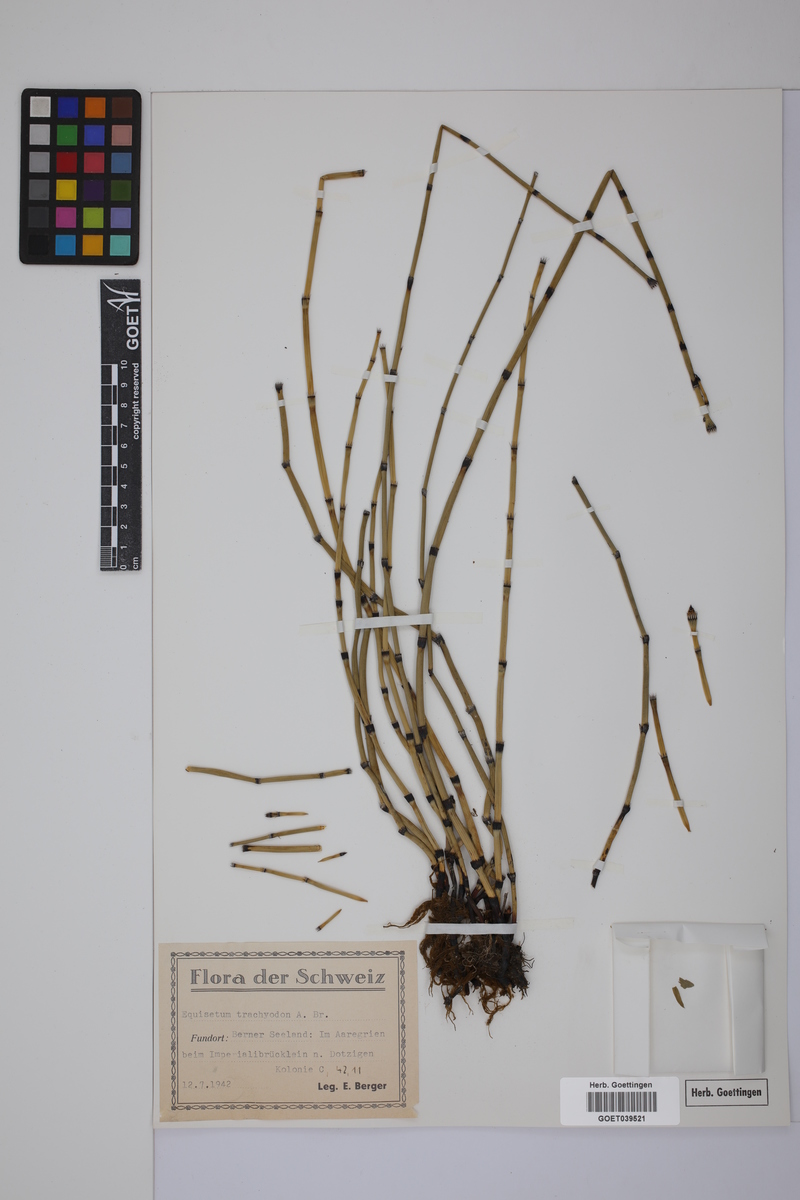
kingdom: Plantae
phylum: Tracheophyta
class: Polypodiopsida
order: Equisetales
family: Equisetaceae
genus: Equisetum
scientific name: Equisetum trachyodon
